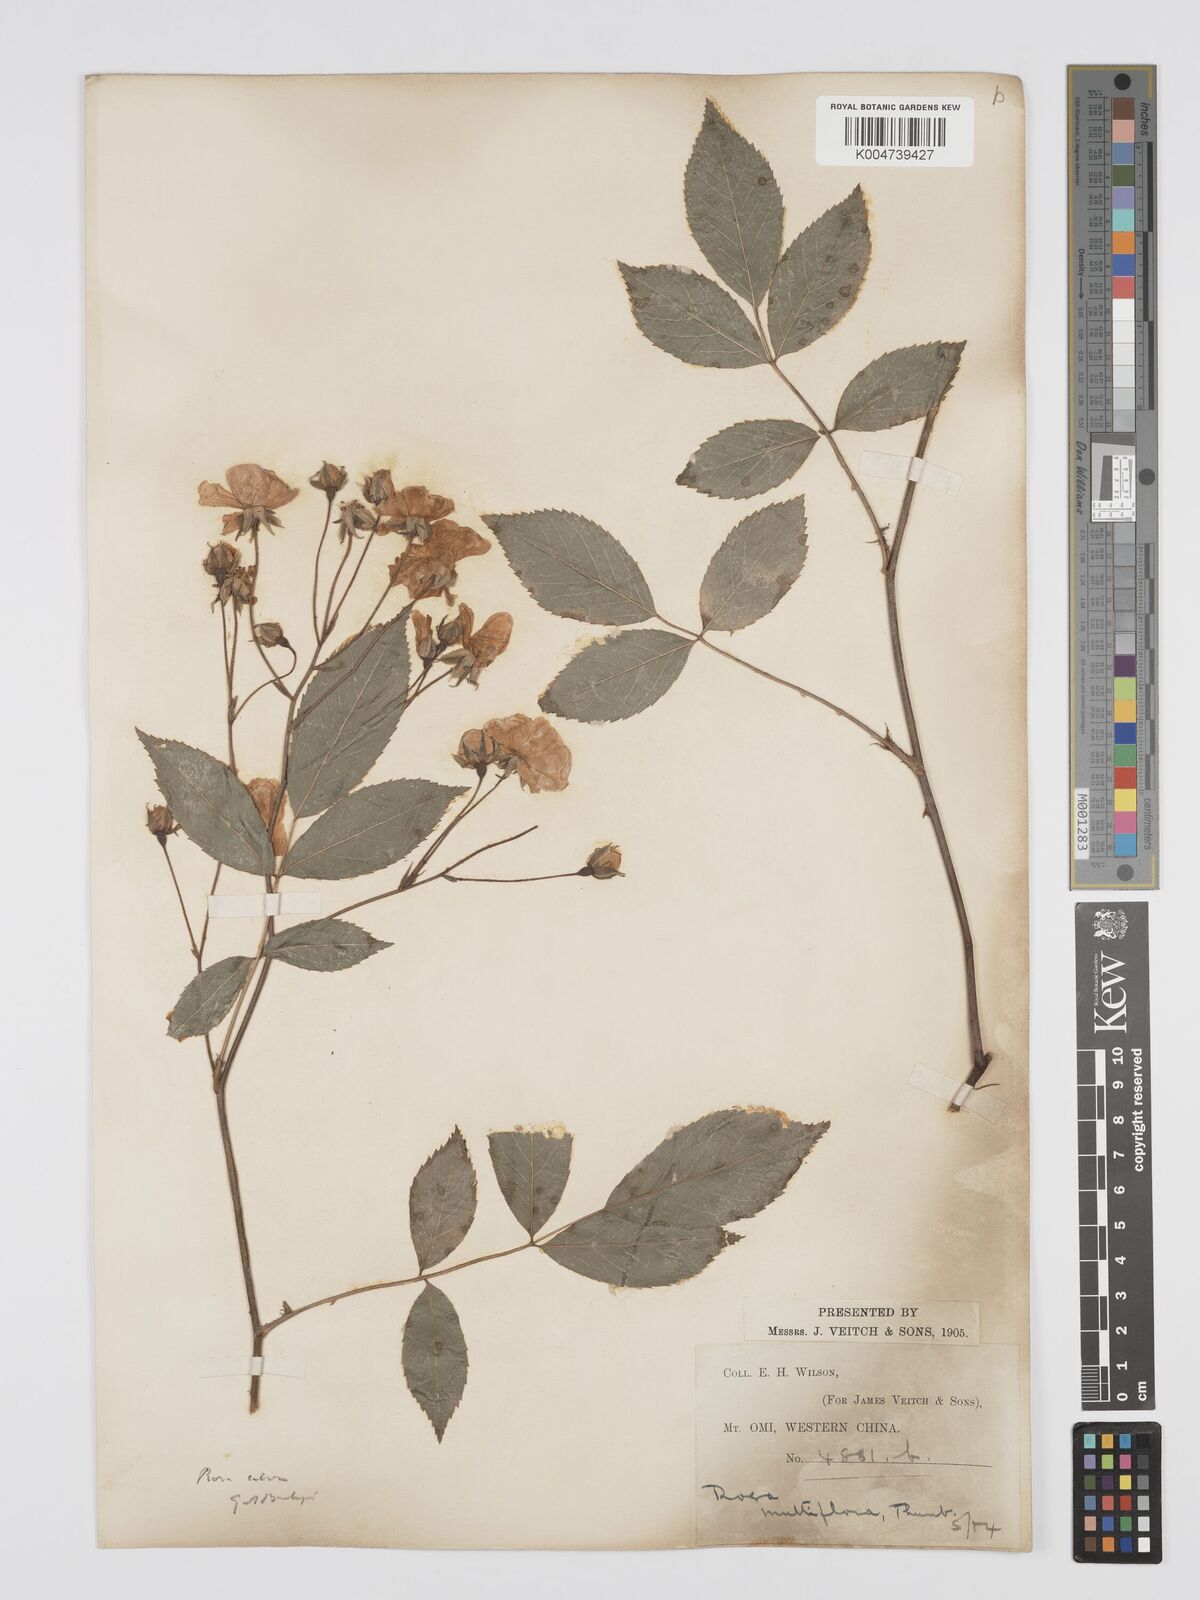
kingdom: Plantae
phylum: Tracheophyta
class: Magnoliopsida
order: Rosales
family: Rosaceae
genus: Rosa
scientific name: Rosa multiflora
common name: Multiflora rose
